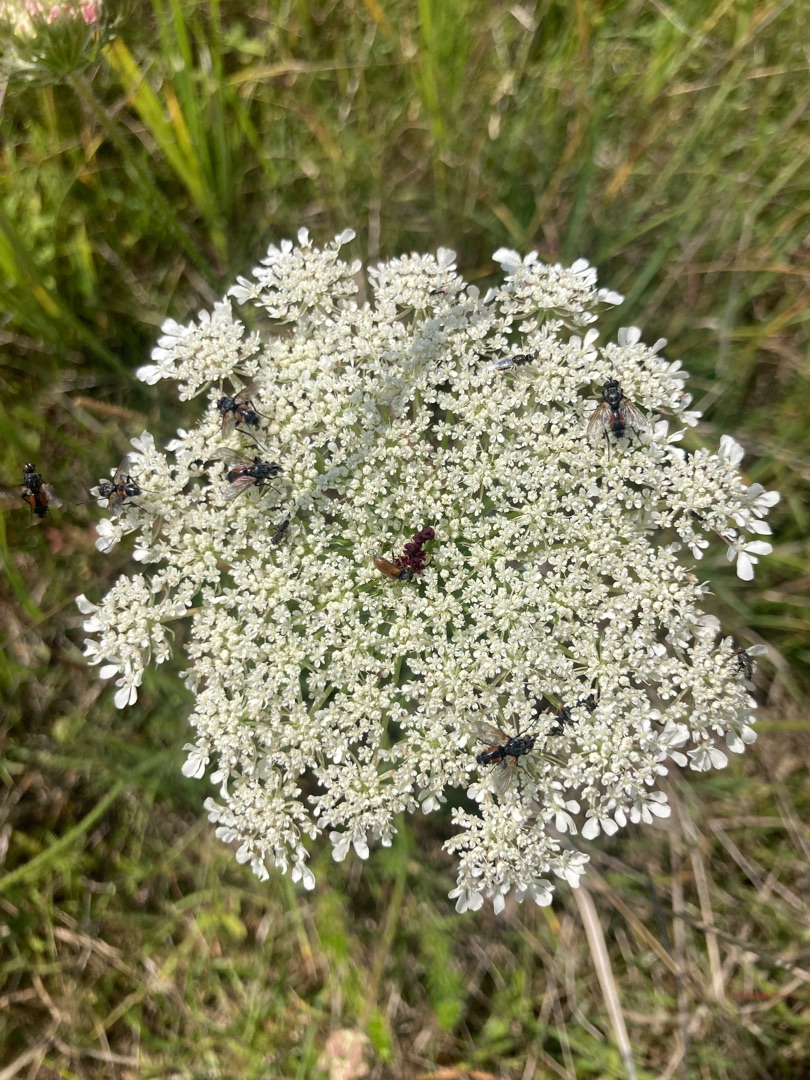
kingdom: Plantae
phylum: Tracheophyta
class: Magnoliopsida
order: Apiales
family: Apiaceae
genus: Daucus
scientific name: Daucus carota
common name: Gulerod
